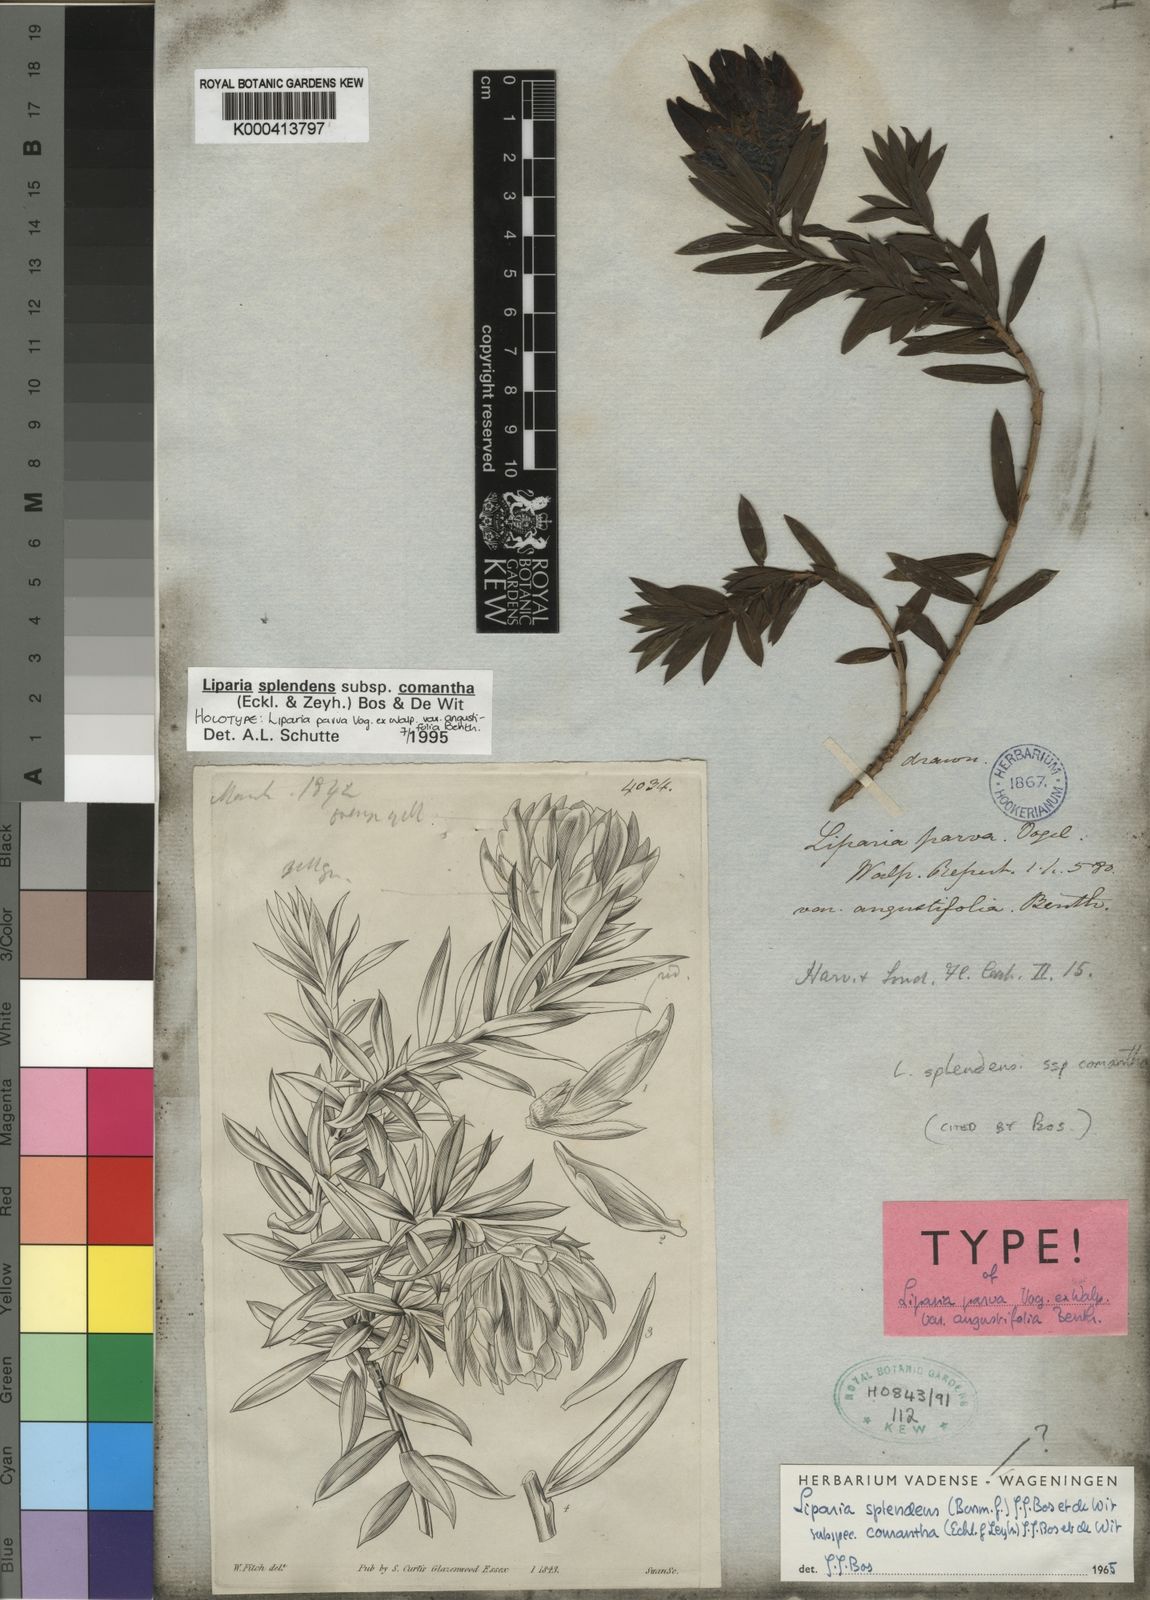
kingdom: Plantae
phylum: Tracheophyta
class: Magnoliopsida
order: Fabales
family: Fabaceae
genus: Liparia
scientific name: Liparia splendens
